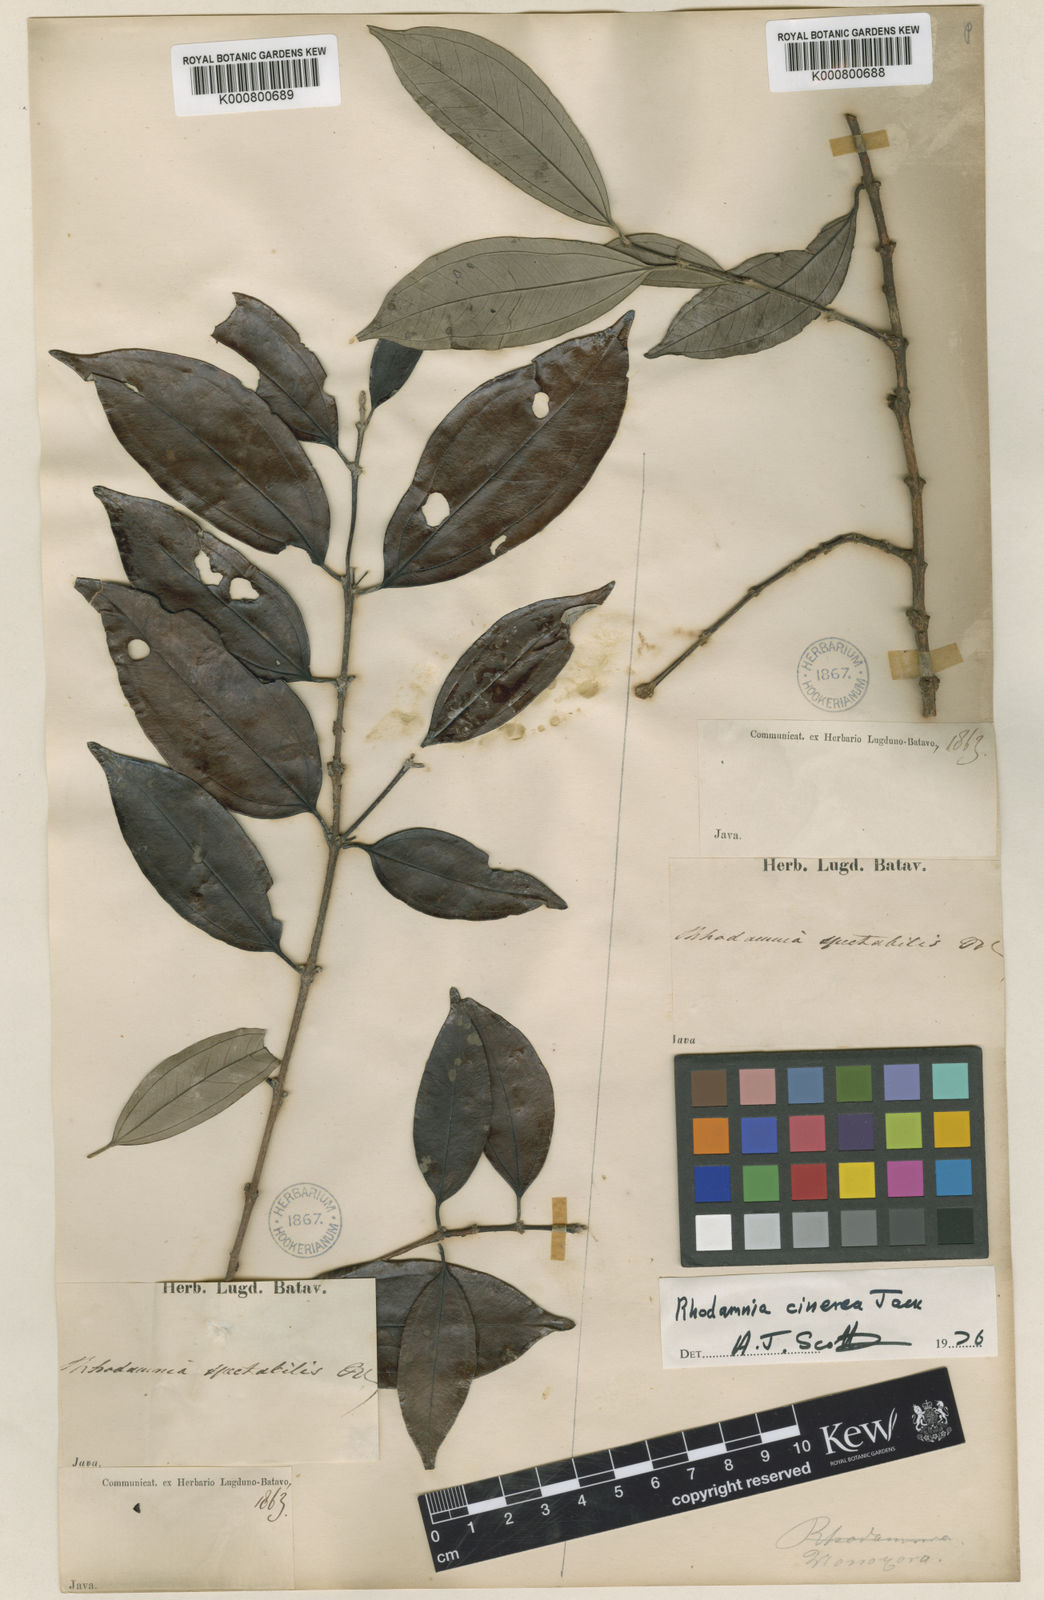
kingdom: Plantae
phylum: Tracheophyta
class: Magnoliopsida
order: Myrtales
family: Myrtaceae
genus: Rhodamnia
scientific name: Rhodamnia cinerea
